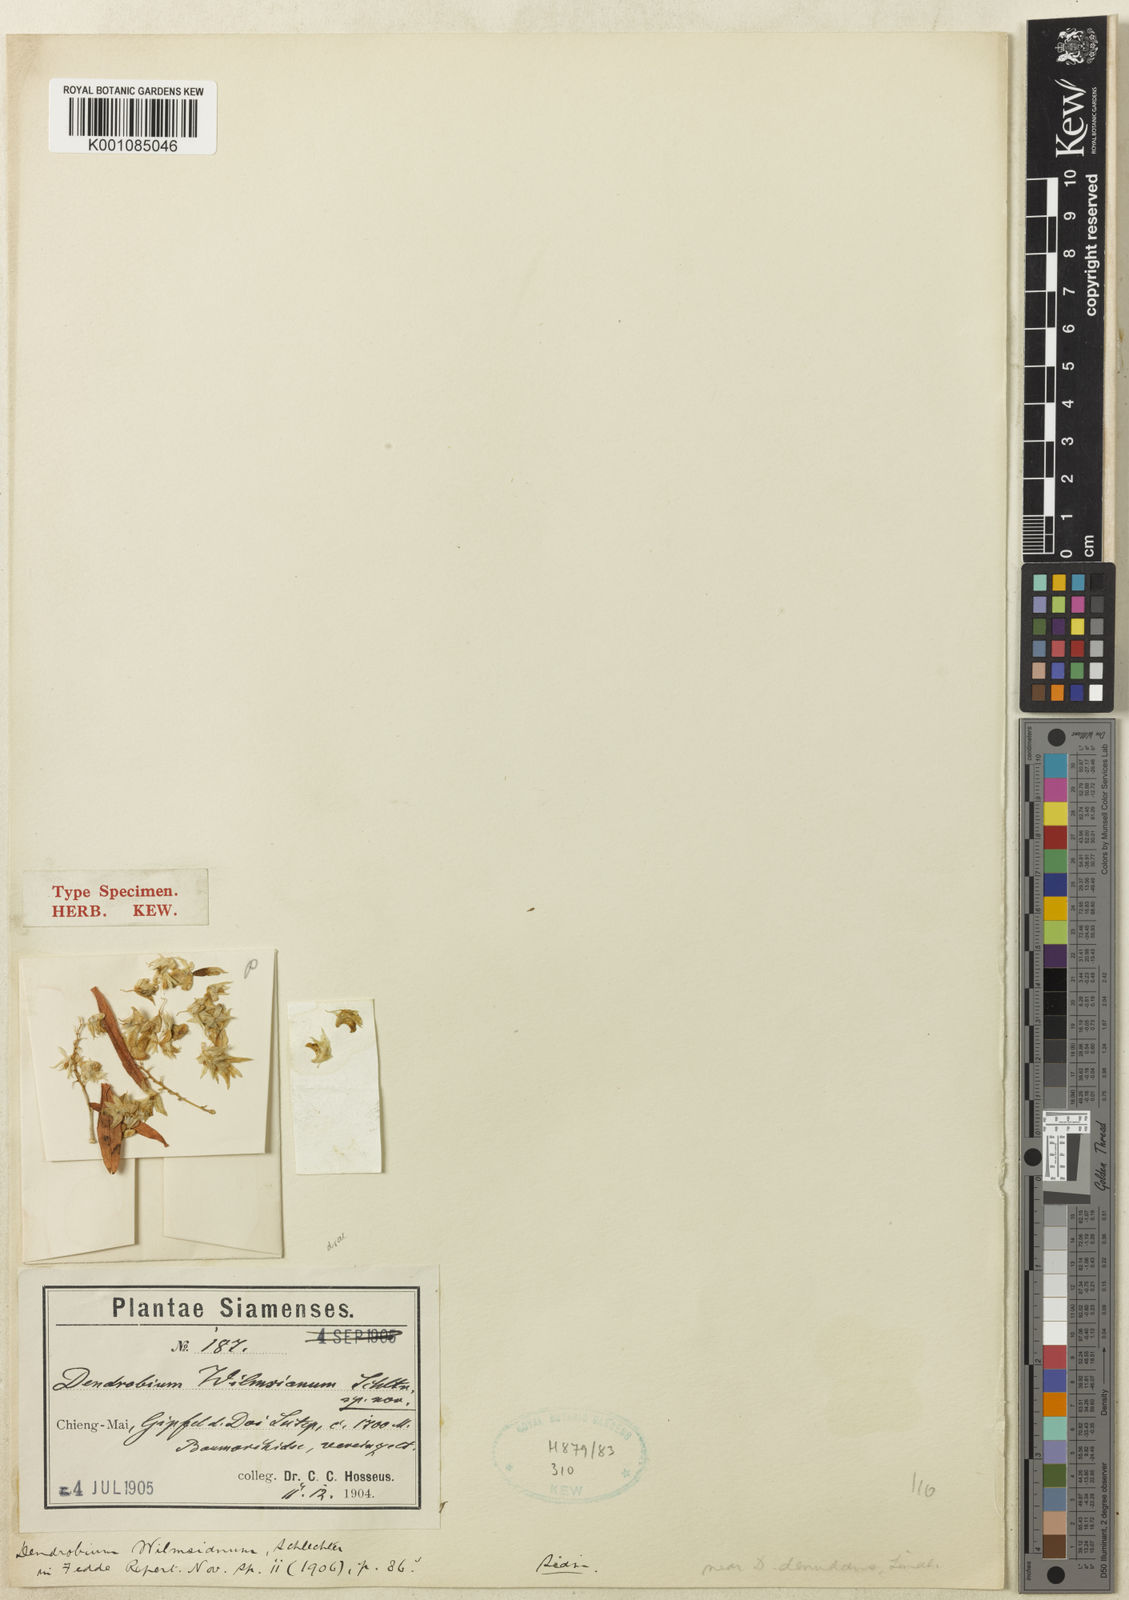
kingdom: Plantae
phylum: Tracheophyta
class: Liliopsida
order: Asparagales
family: Orchidaceae
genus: Dendrobium
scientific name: Dendrobium compactum
